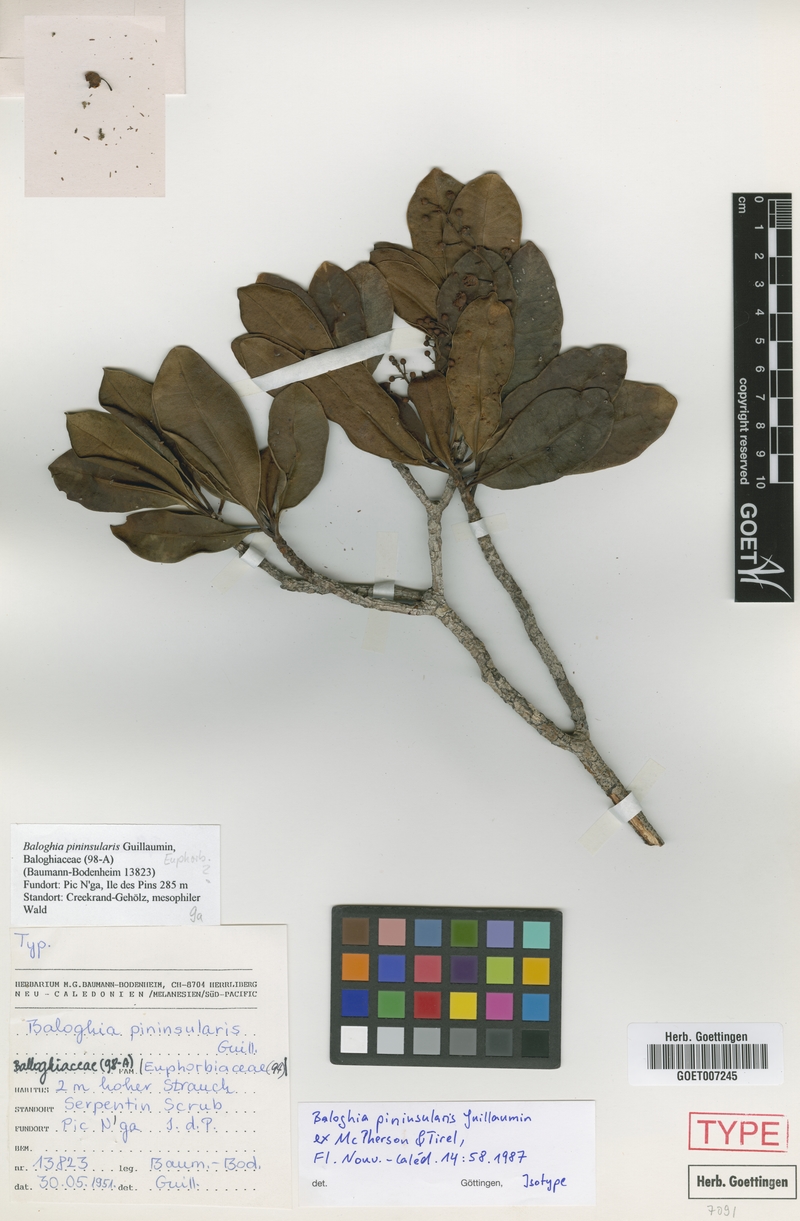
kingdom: Plantae
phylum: Tracheophyta
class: Magnoliopsida
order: Malpighiales
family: Euphorbiaceae
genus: Baloghia
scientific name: Baloghia pininsularis
